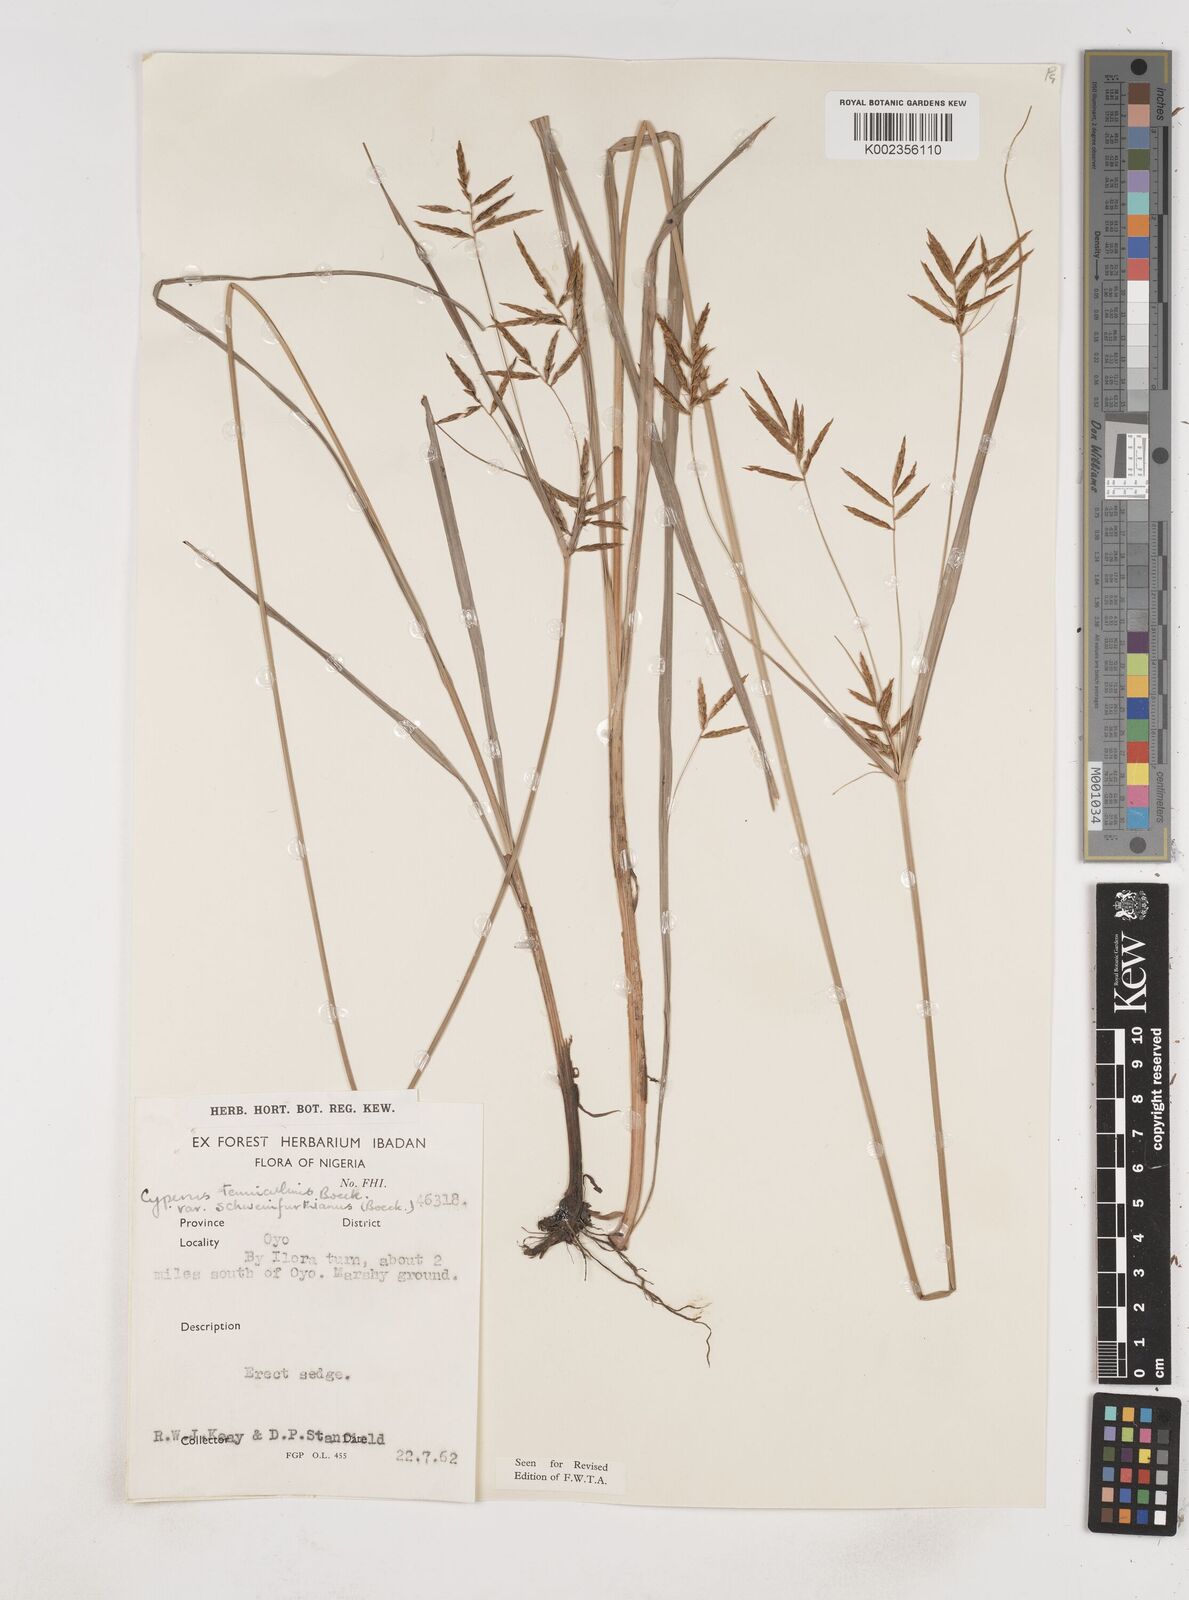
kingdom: Plantae
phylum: Tracheophyta
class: Liliopsida
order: Poales
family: Cyperaceae
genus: Cyperus
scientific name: Cyperus tenuiculmis
